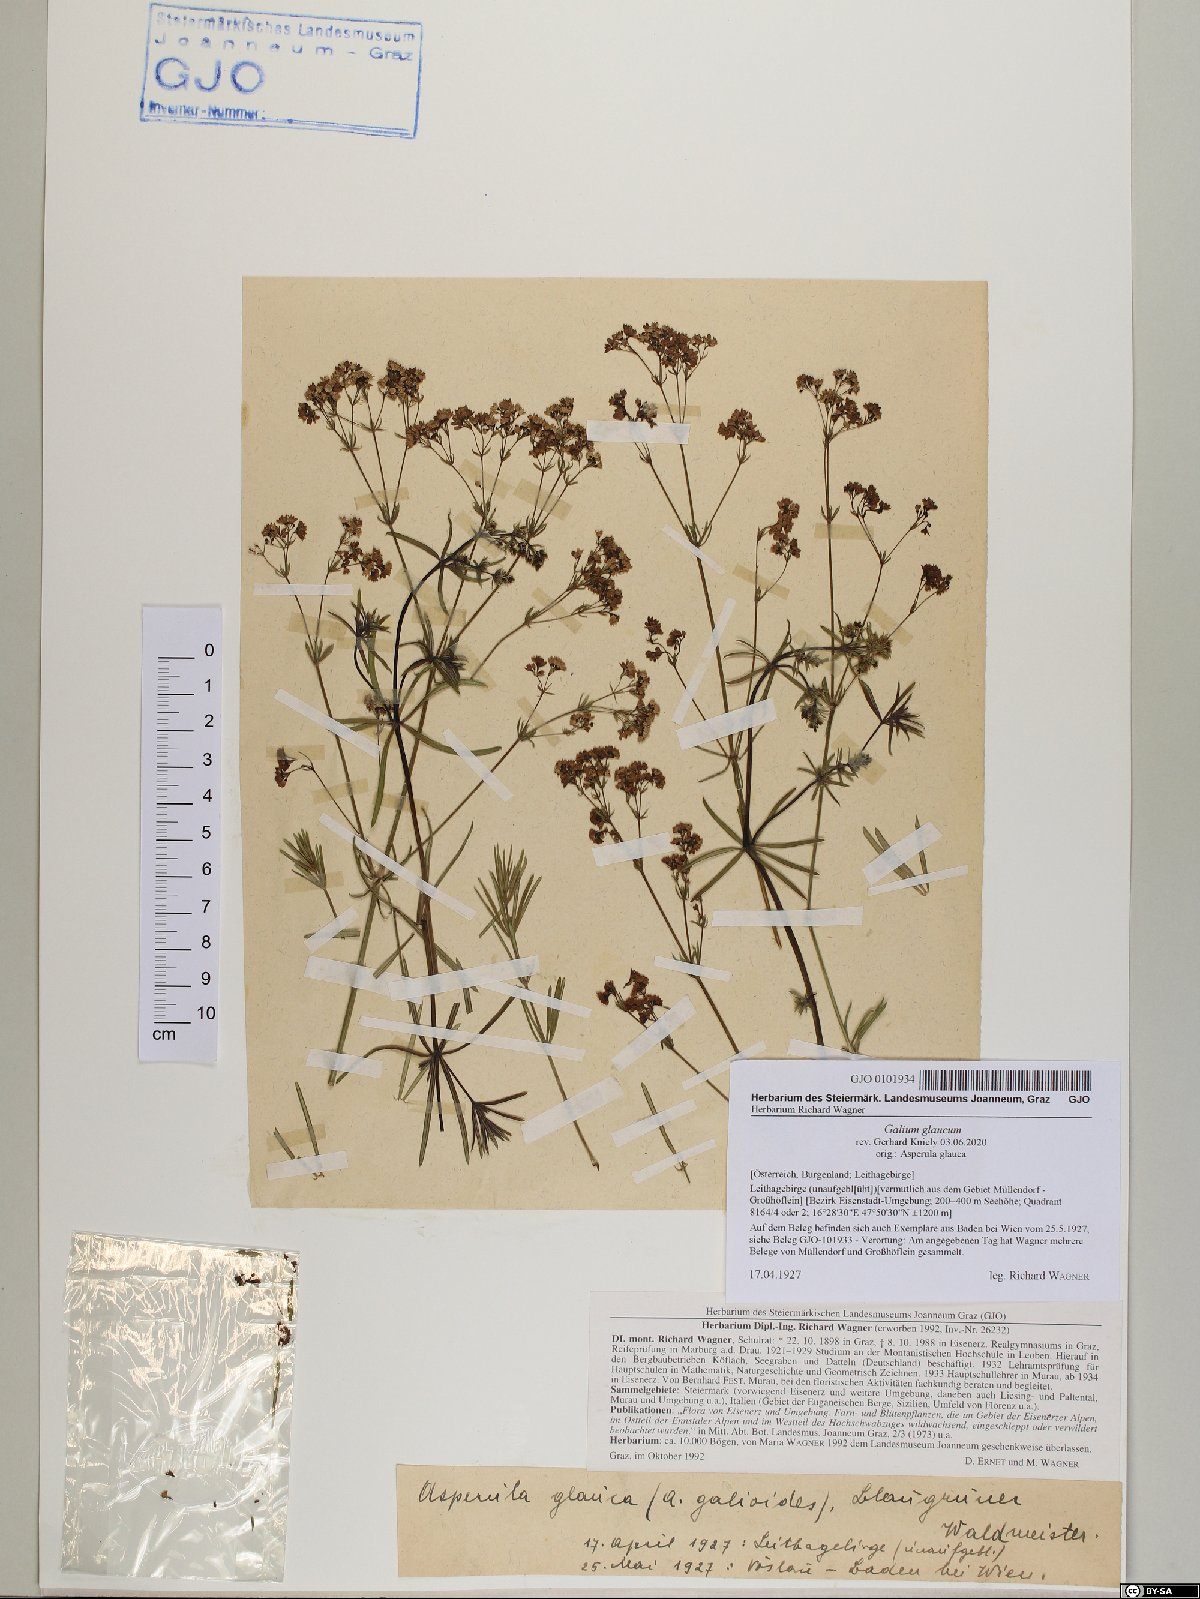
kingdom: Plantae
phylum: Tracheophyta
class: Magnoliopsida
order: Gentianales
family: Rubiaceae
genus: Galium
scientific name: Galium glaucum
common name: Waxy bedstraw
